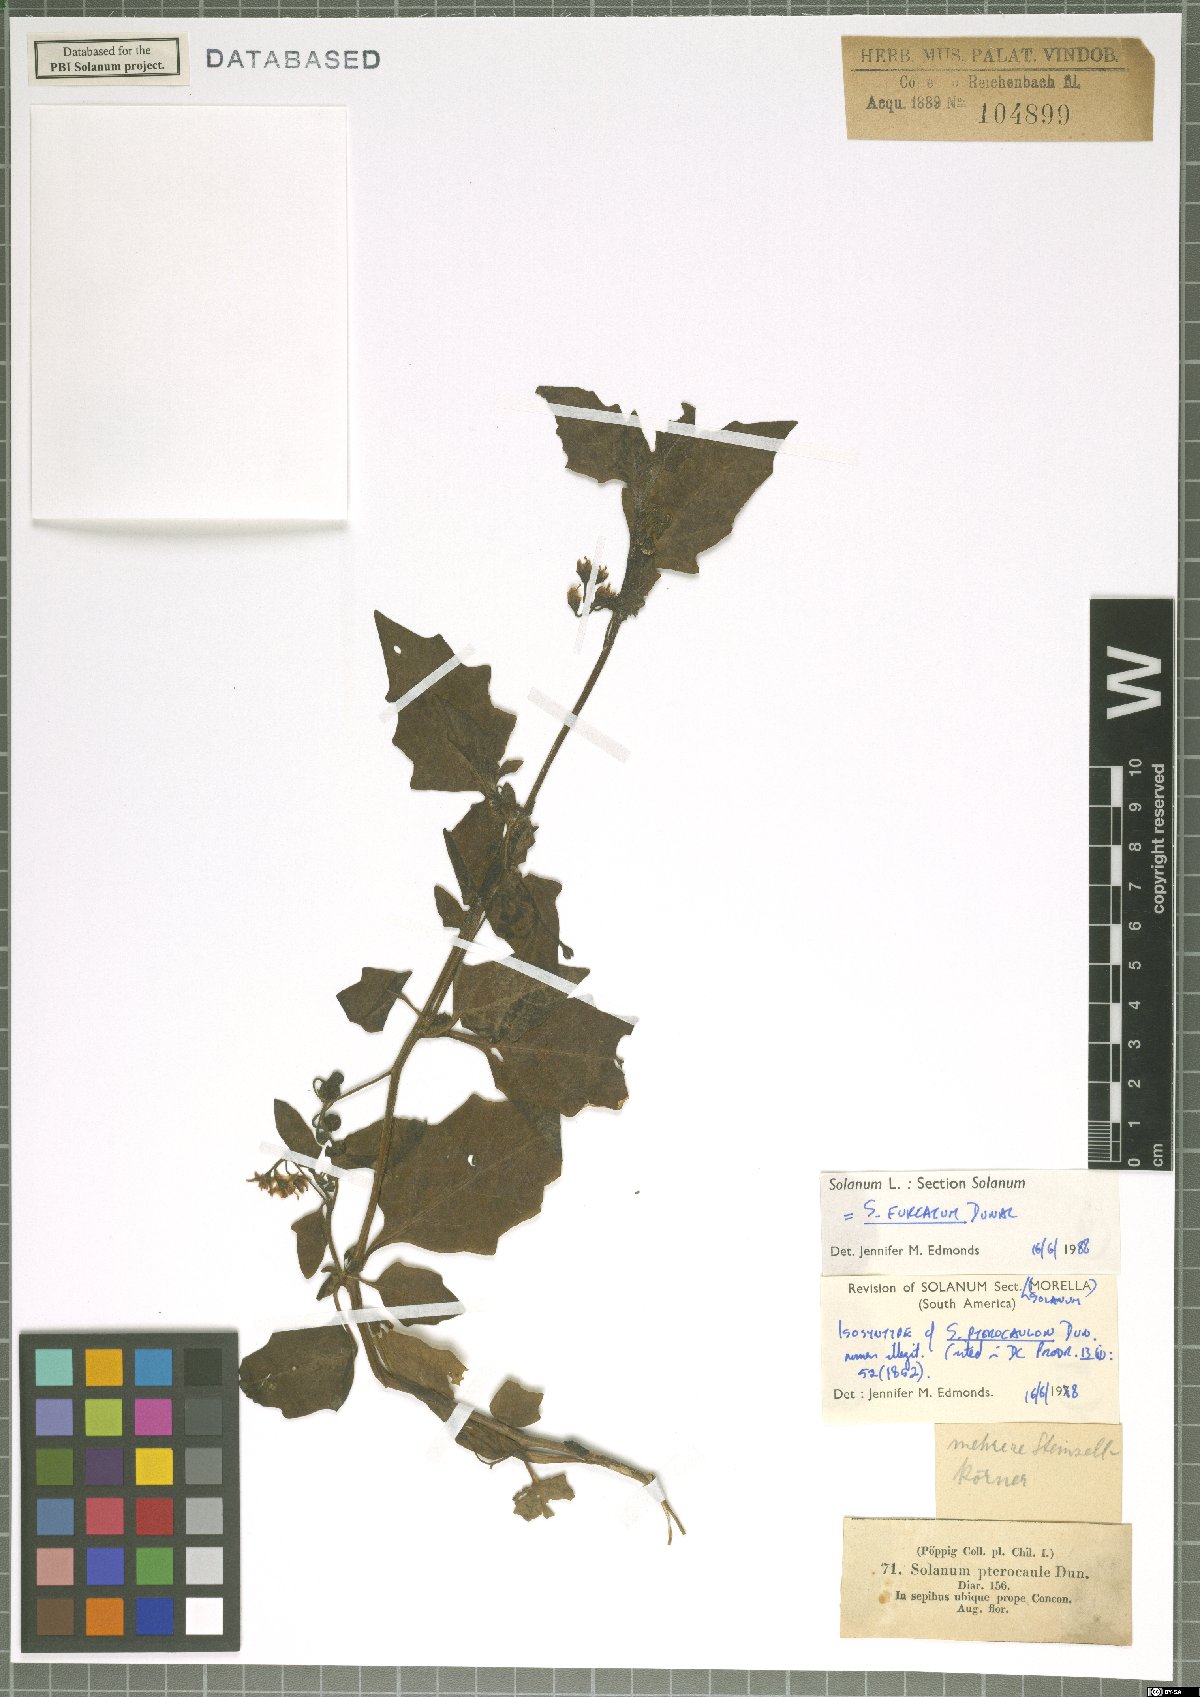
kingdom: Plantae
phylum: Tracheophyta
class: Magnoliopsida
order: Solanales
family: Solanaceae
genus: Solanum
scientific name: Solanum furcatum
